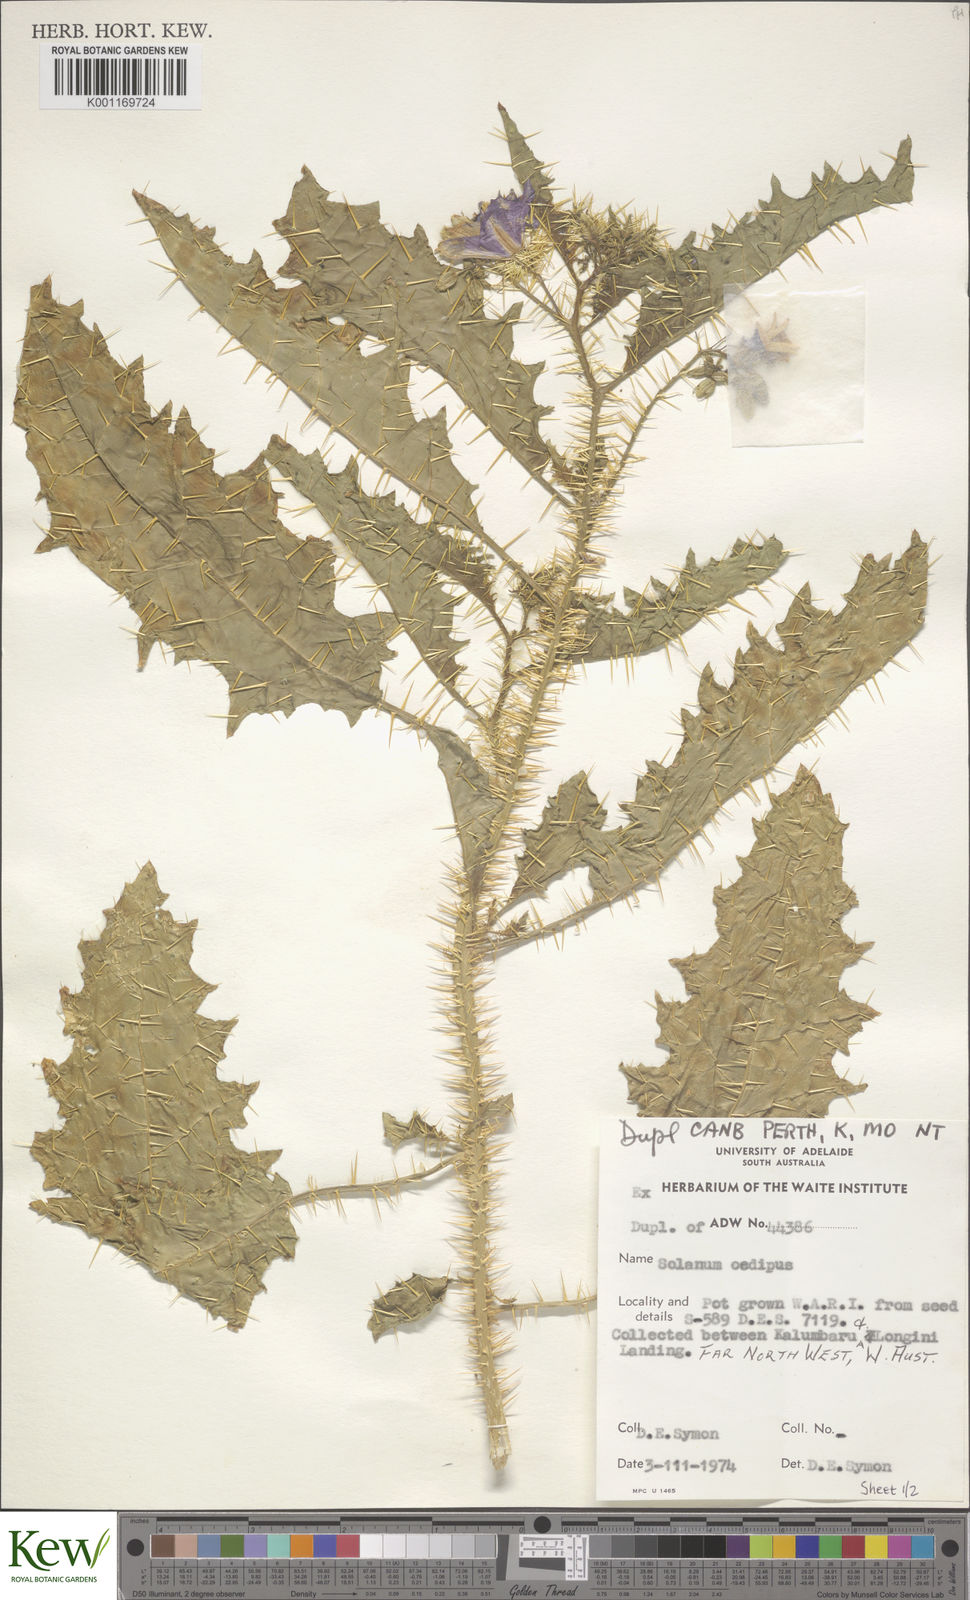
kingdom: Plantae
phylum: Tracheophyta
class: Magnoliopsida
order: Solanales
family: Solanaceae
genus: Solanum
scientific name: Solanum oedipus
